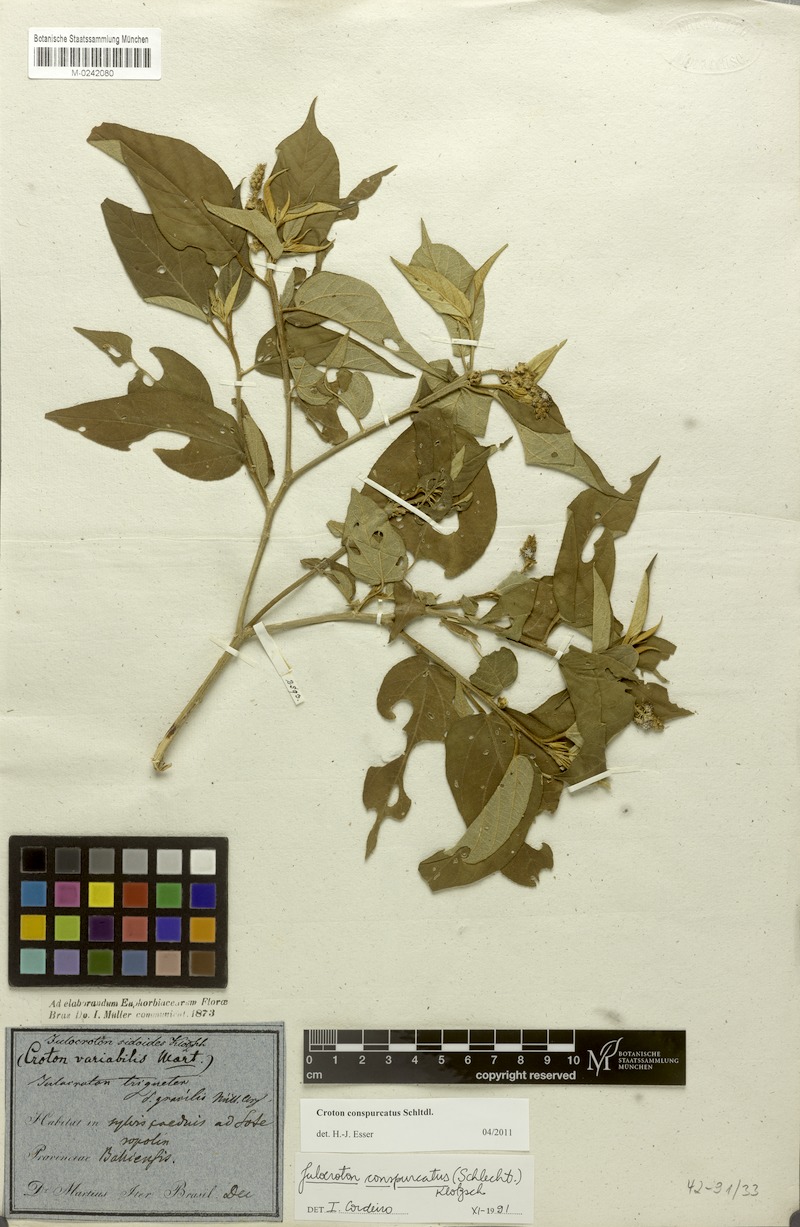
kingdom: Plantae
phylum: Tracheophyta
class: Magnoliopsida
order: Malpighiales
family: Euphorbiaceae
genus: Croton
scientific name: Croton conspurcatus
